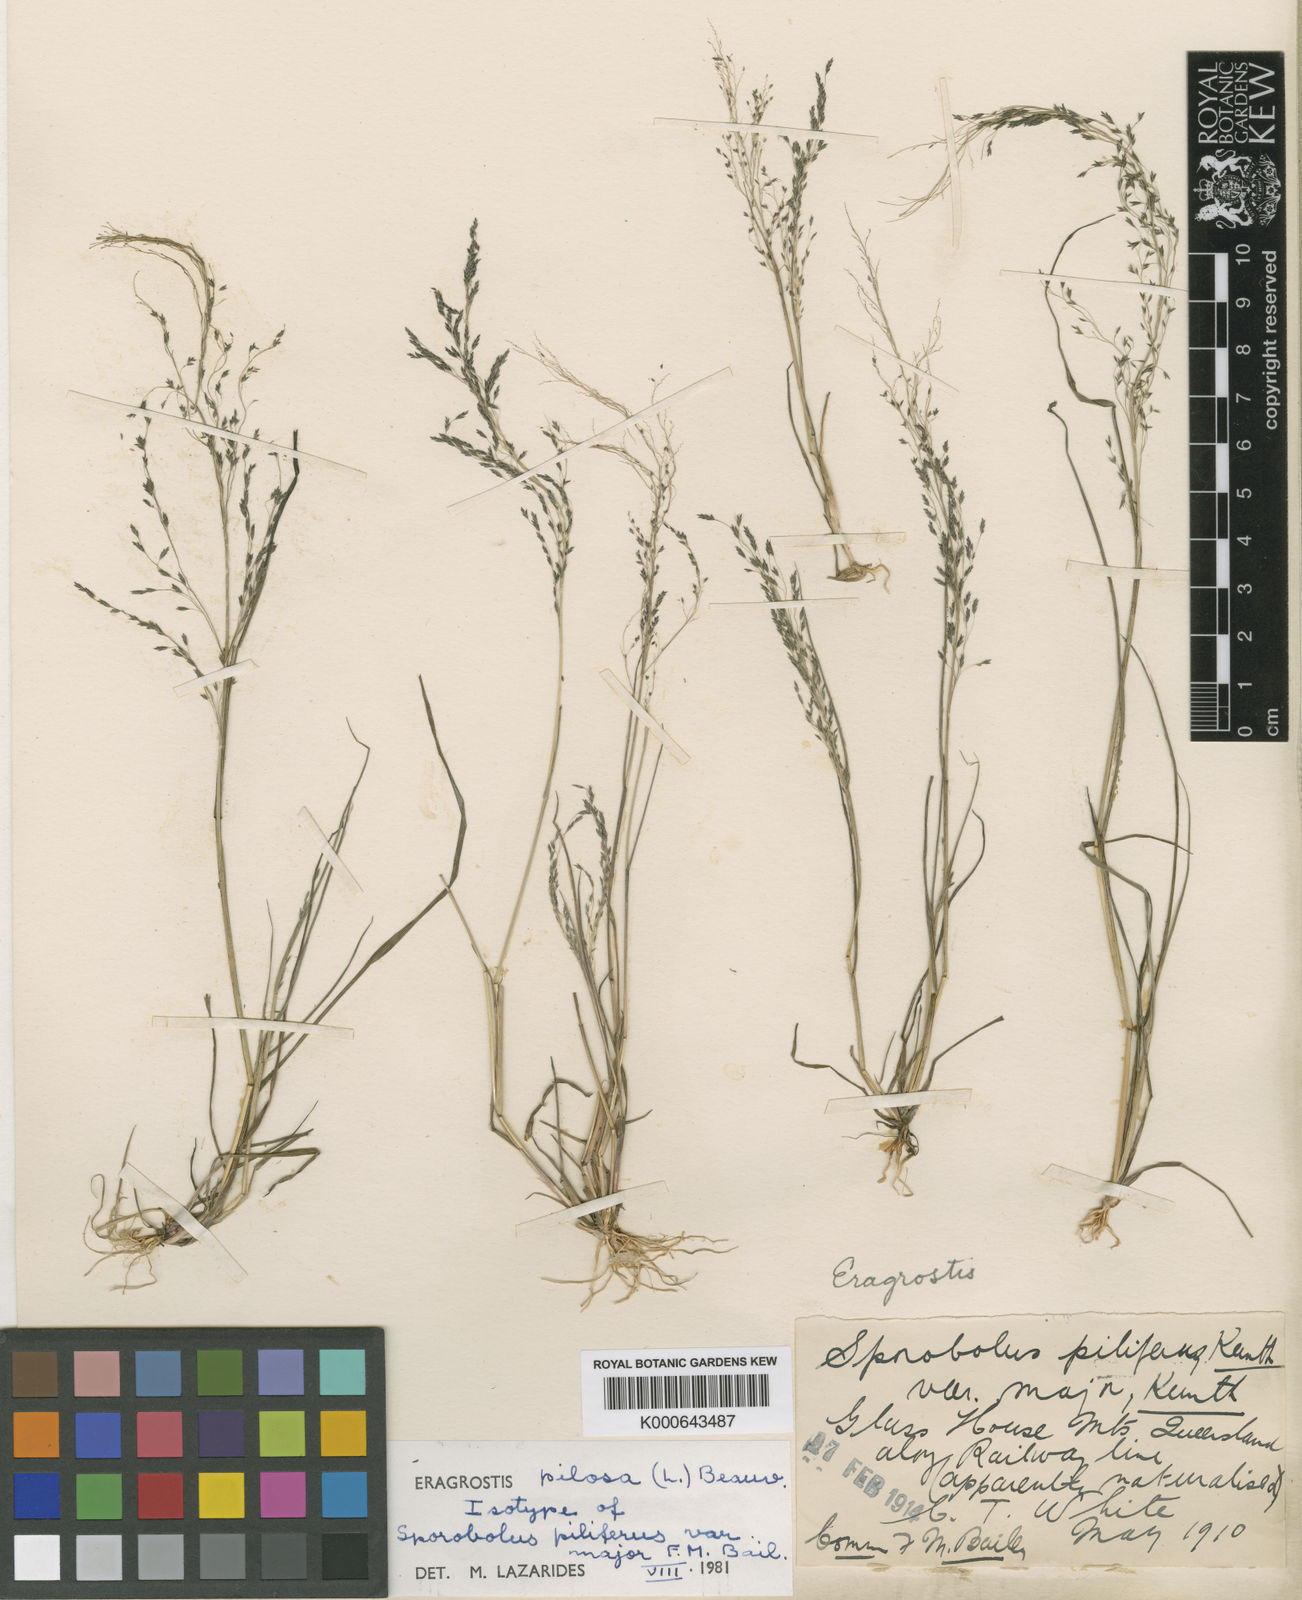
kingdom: Plantae
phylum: Tracheophyta
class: Liliopsida
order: Poales
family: Poaceae
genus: Eragrostis
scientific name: Eragrostis pilosa
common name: Indian lovegrass
